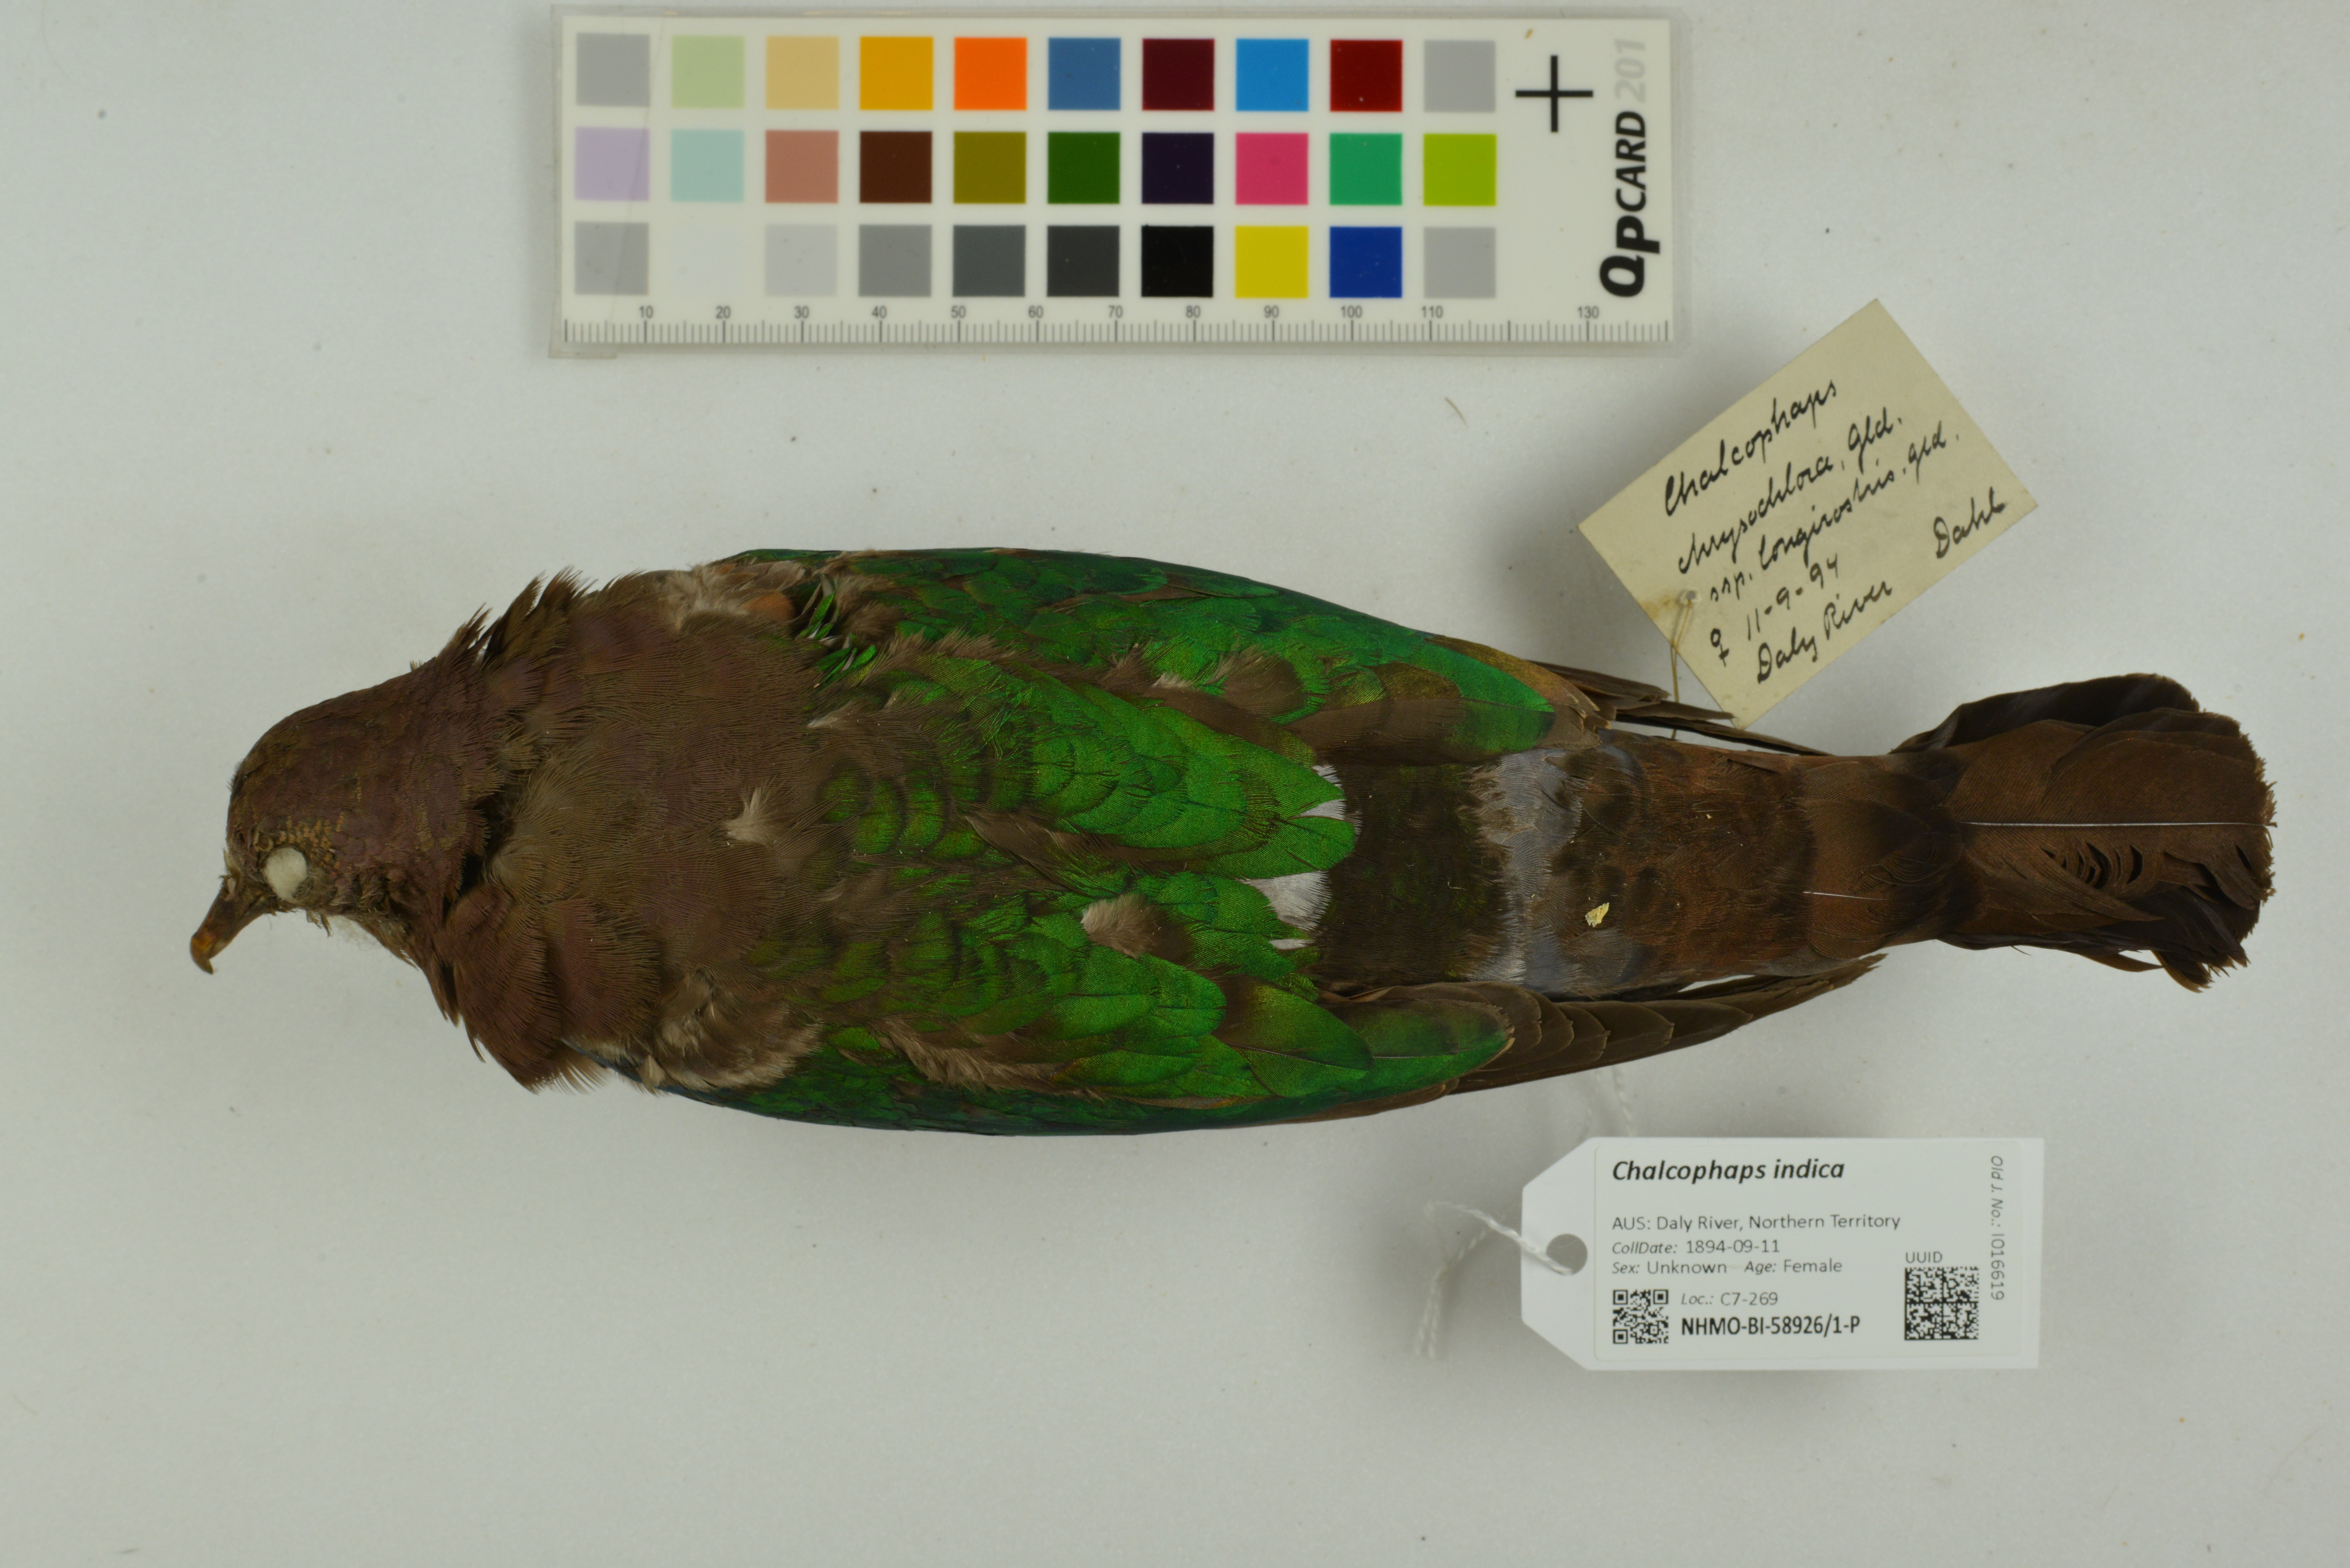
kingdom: Animalia
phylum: Chordata
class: Aves
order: Columbiformes
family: Columbidae
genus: Chalcophaps
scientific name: Chalcophaps indica
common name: Common emerald dove
